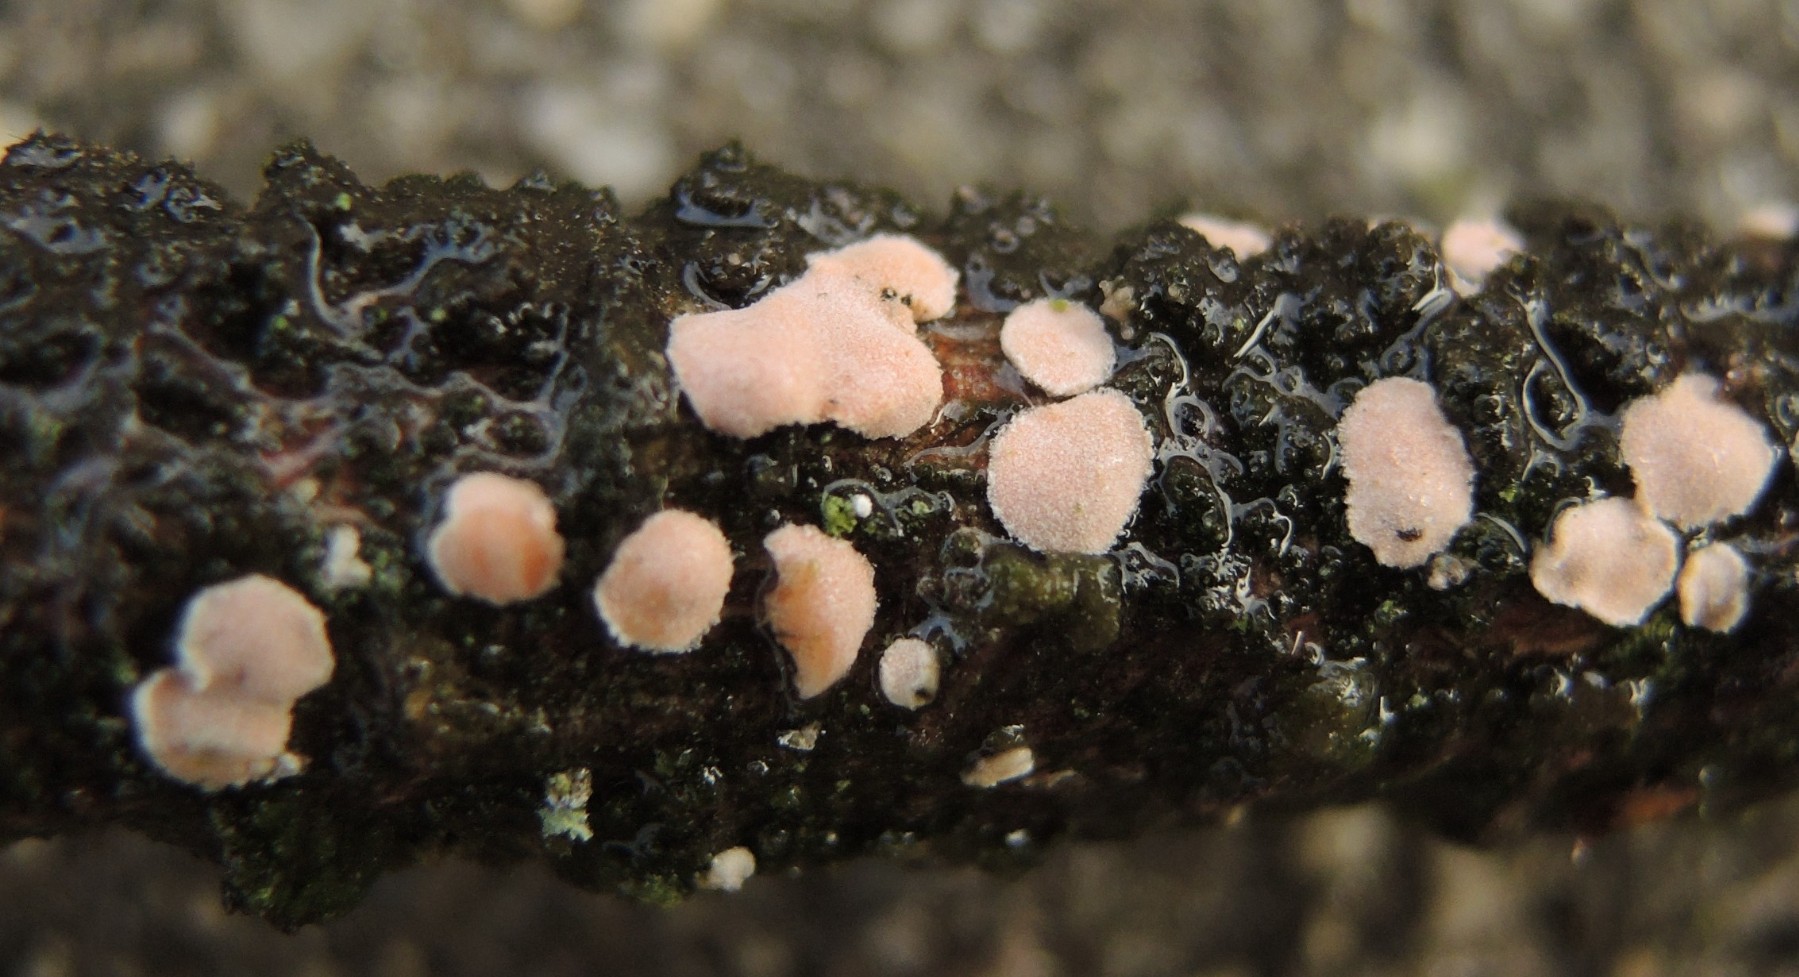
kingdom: Fungi
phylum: Basidiomycota
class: Agaricomycetes
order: Russulales
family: Stereaceae
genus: Aleurodiscus
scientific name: Aleurodiscus amorphus
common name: orange skiveskorpe
